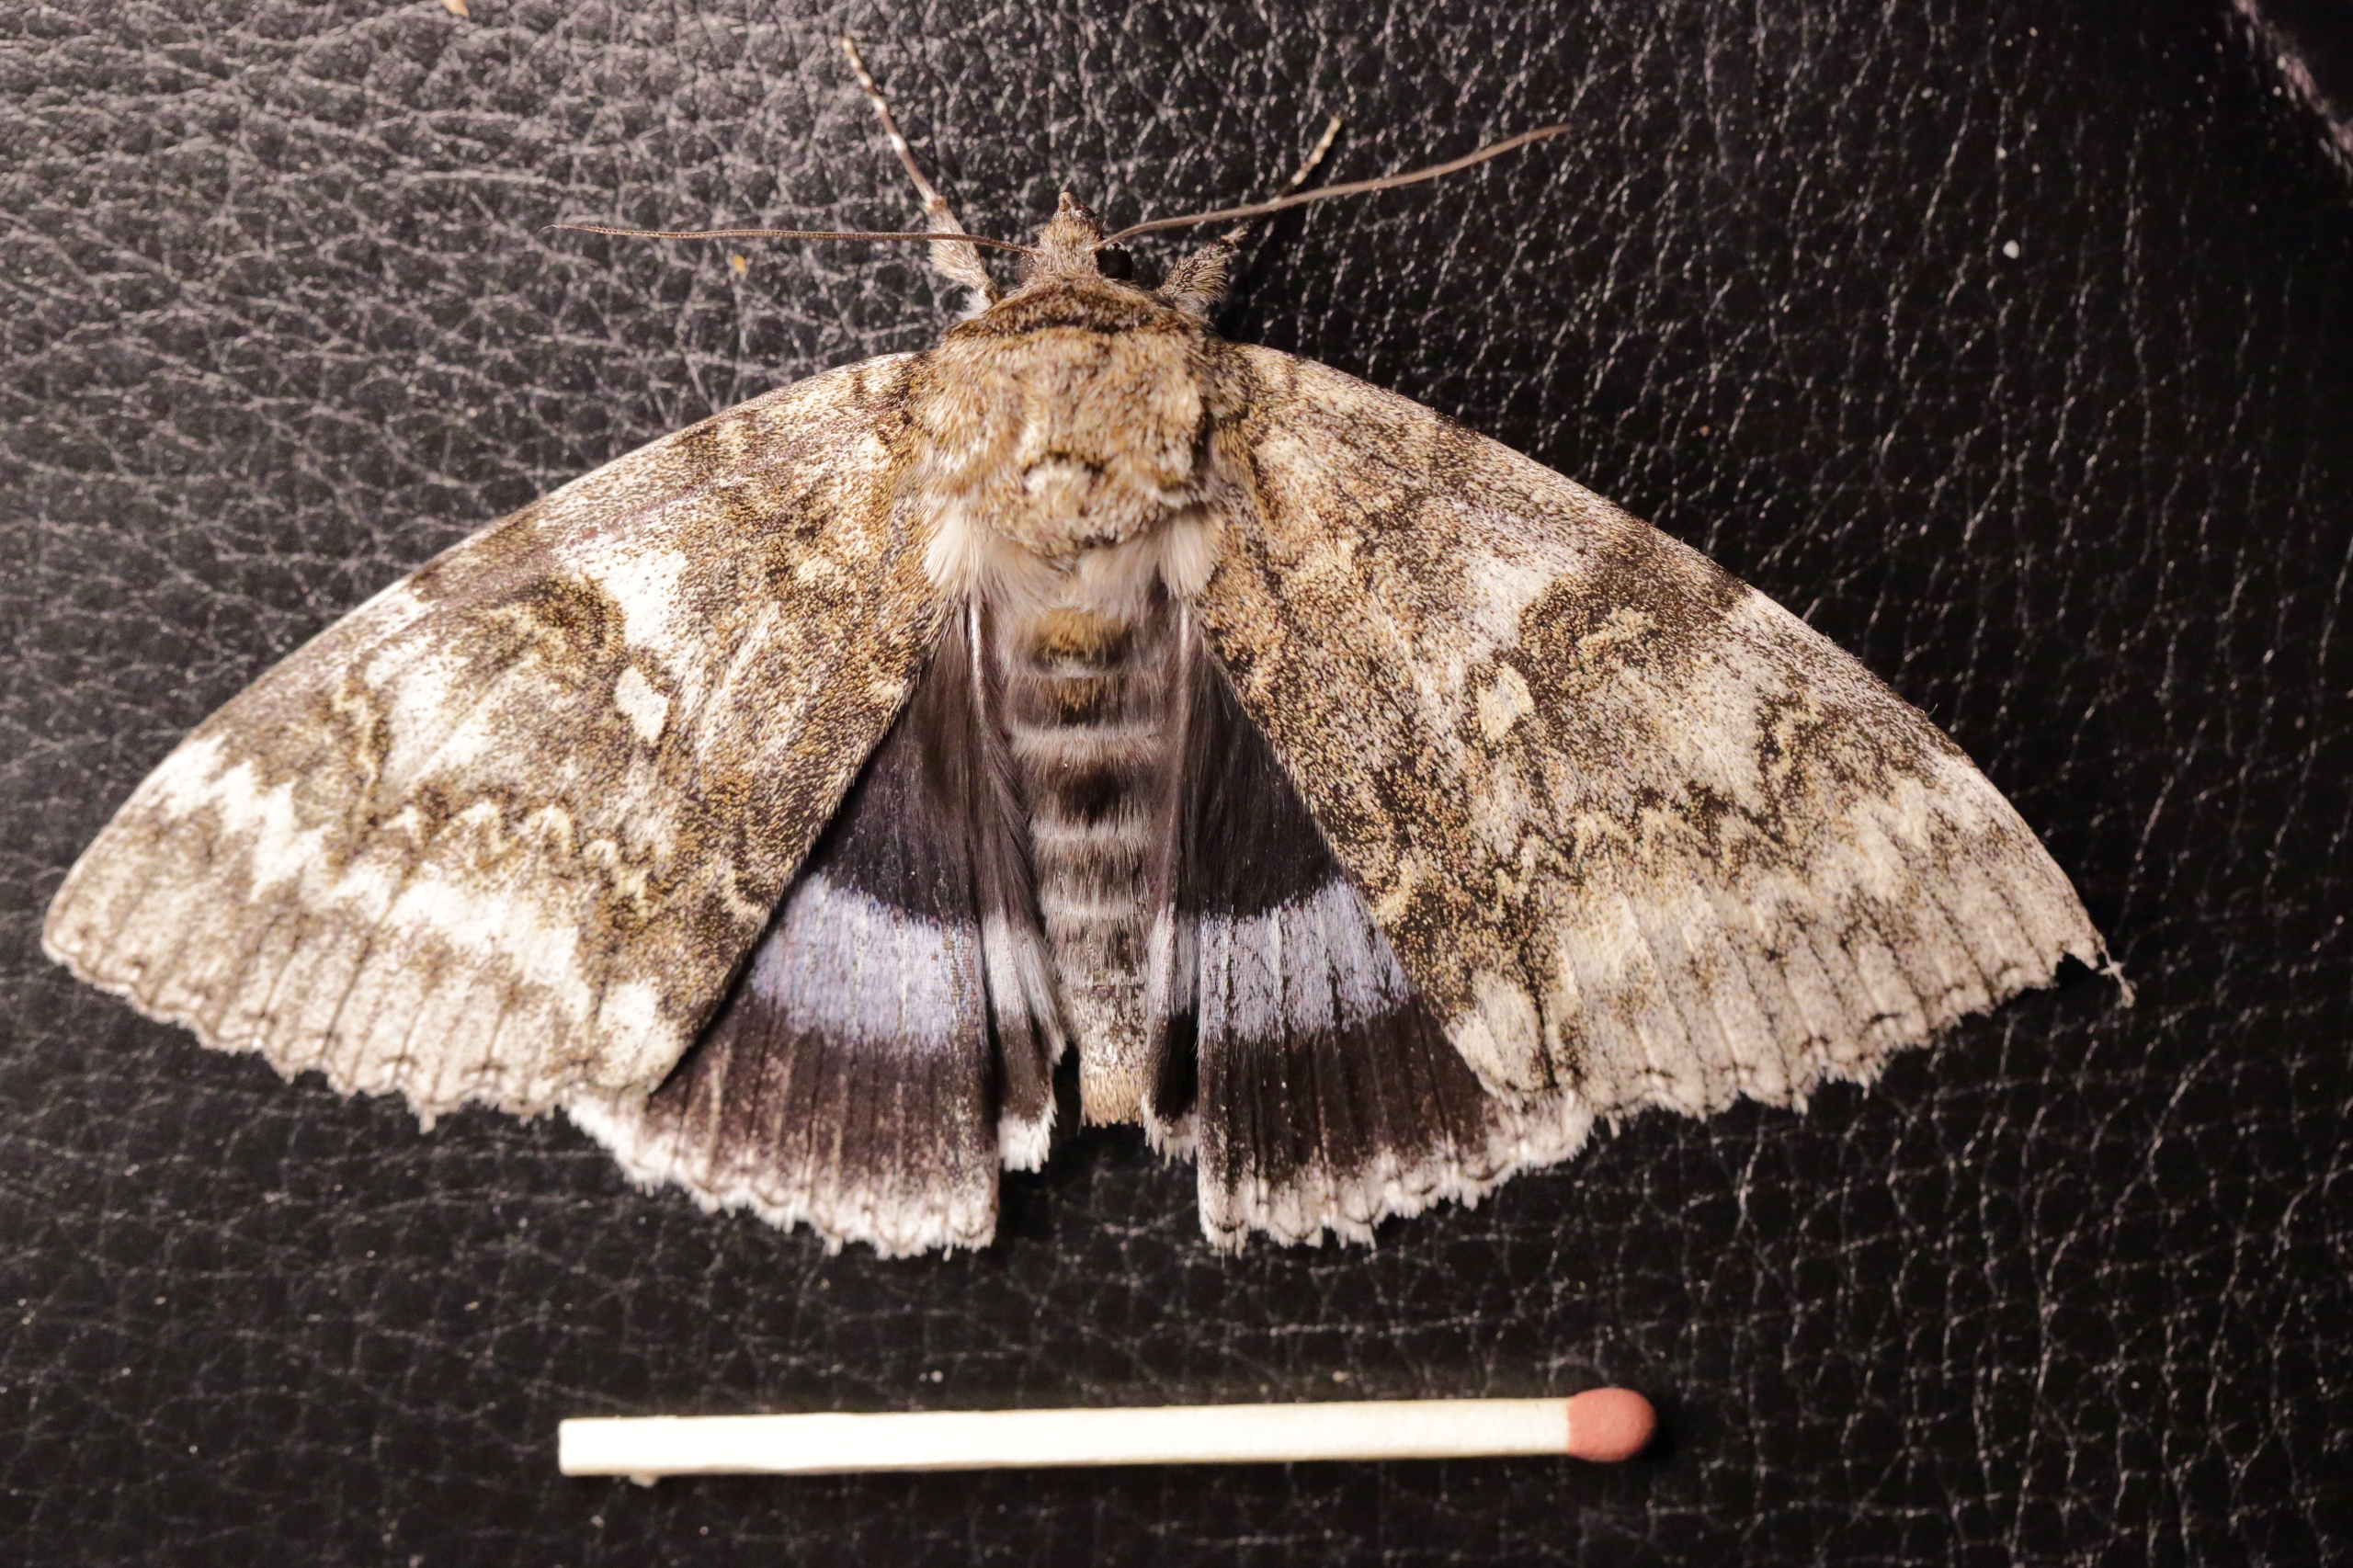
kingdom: Animalia
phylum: Arthropoda
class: Insecta
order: Lepidoptera
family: Erebidae
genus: Catocala
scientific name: Catocala fraxini
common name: Blåt ordensbånd
